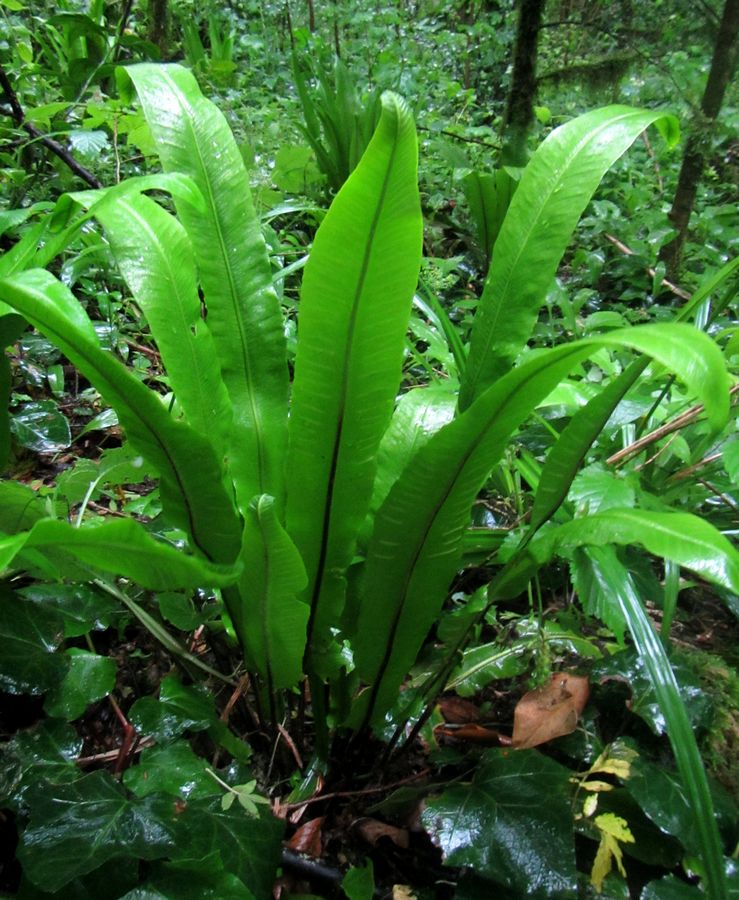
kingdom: Plantae
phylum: Tracheophyta
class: Polypodiopsida
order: Polypodiales
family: Aspleniaceae
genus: Asplenium
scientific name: Asplenium scolopendrium
